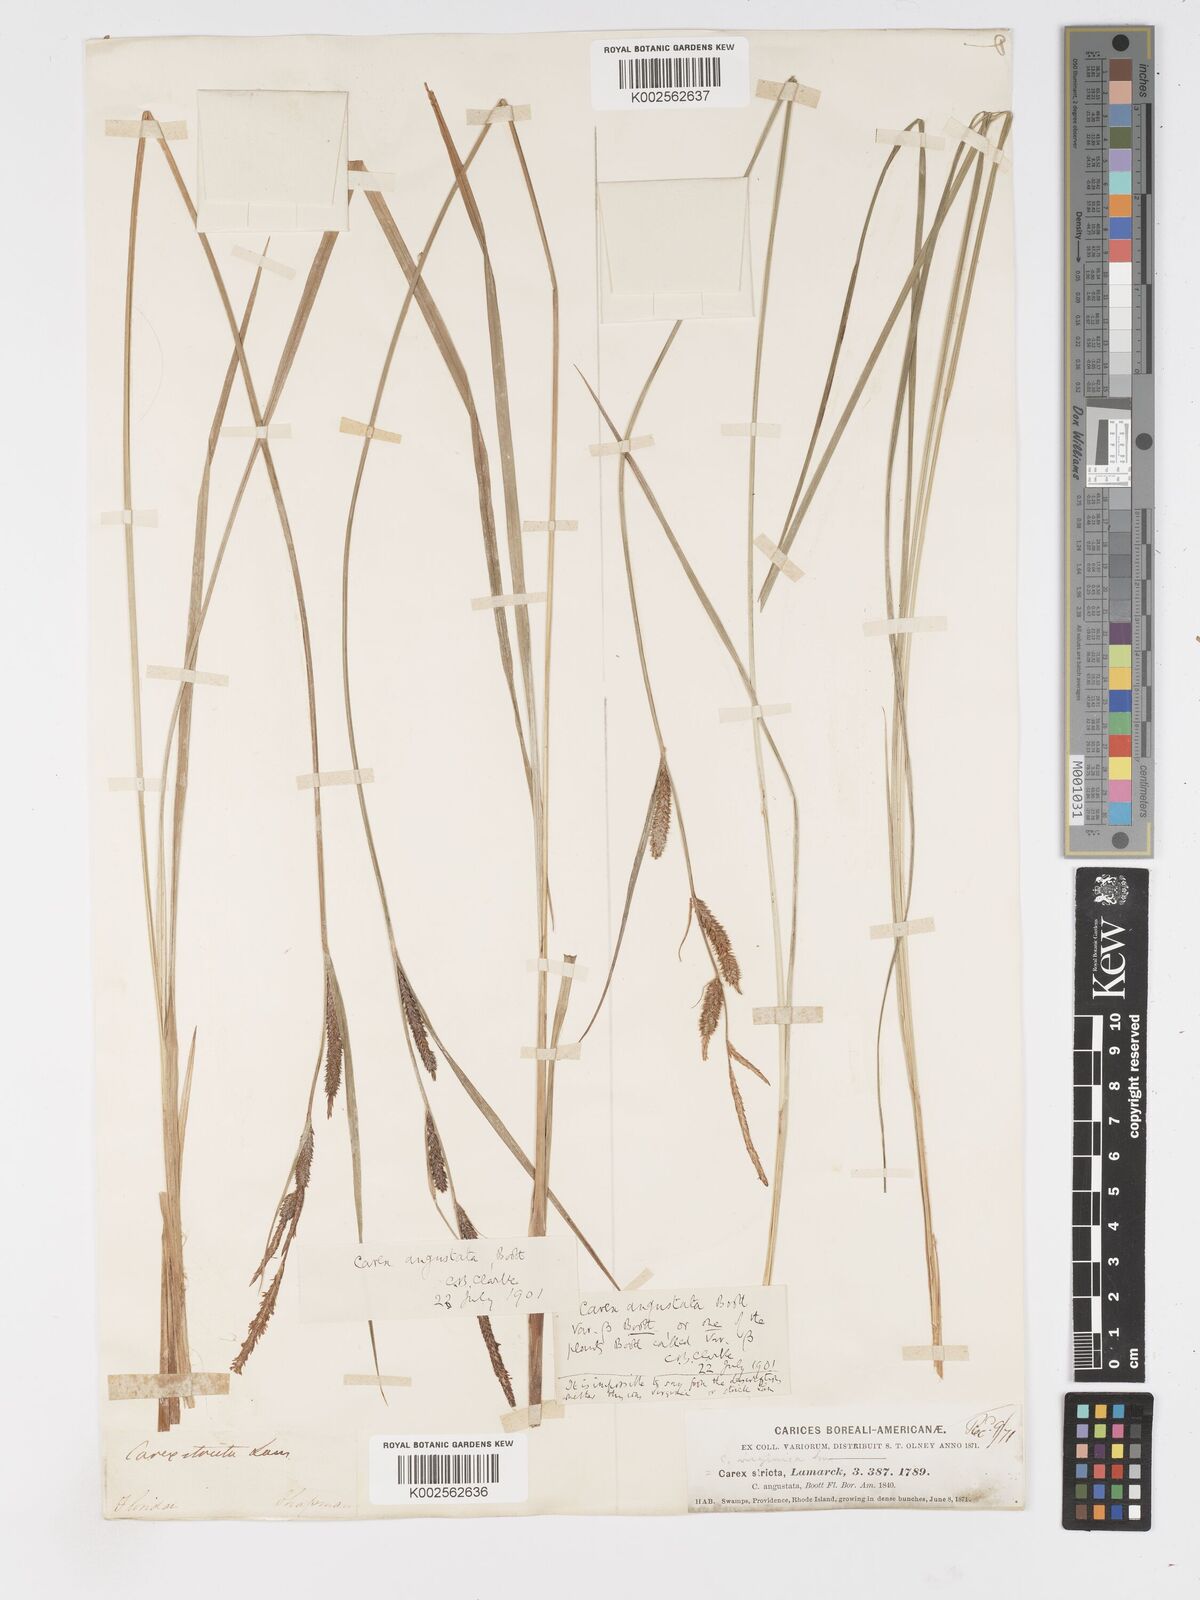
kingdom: Plantae
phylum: Tracheophyta
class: Liliopsida
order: Poales
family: Cyperaceae
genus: Carex
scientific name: Carex stricta
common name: Hummock sedge
